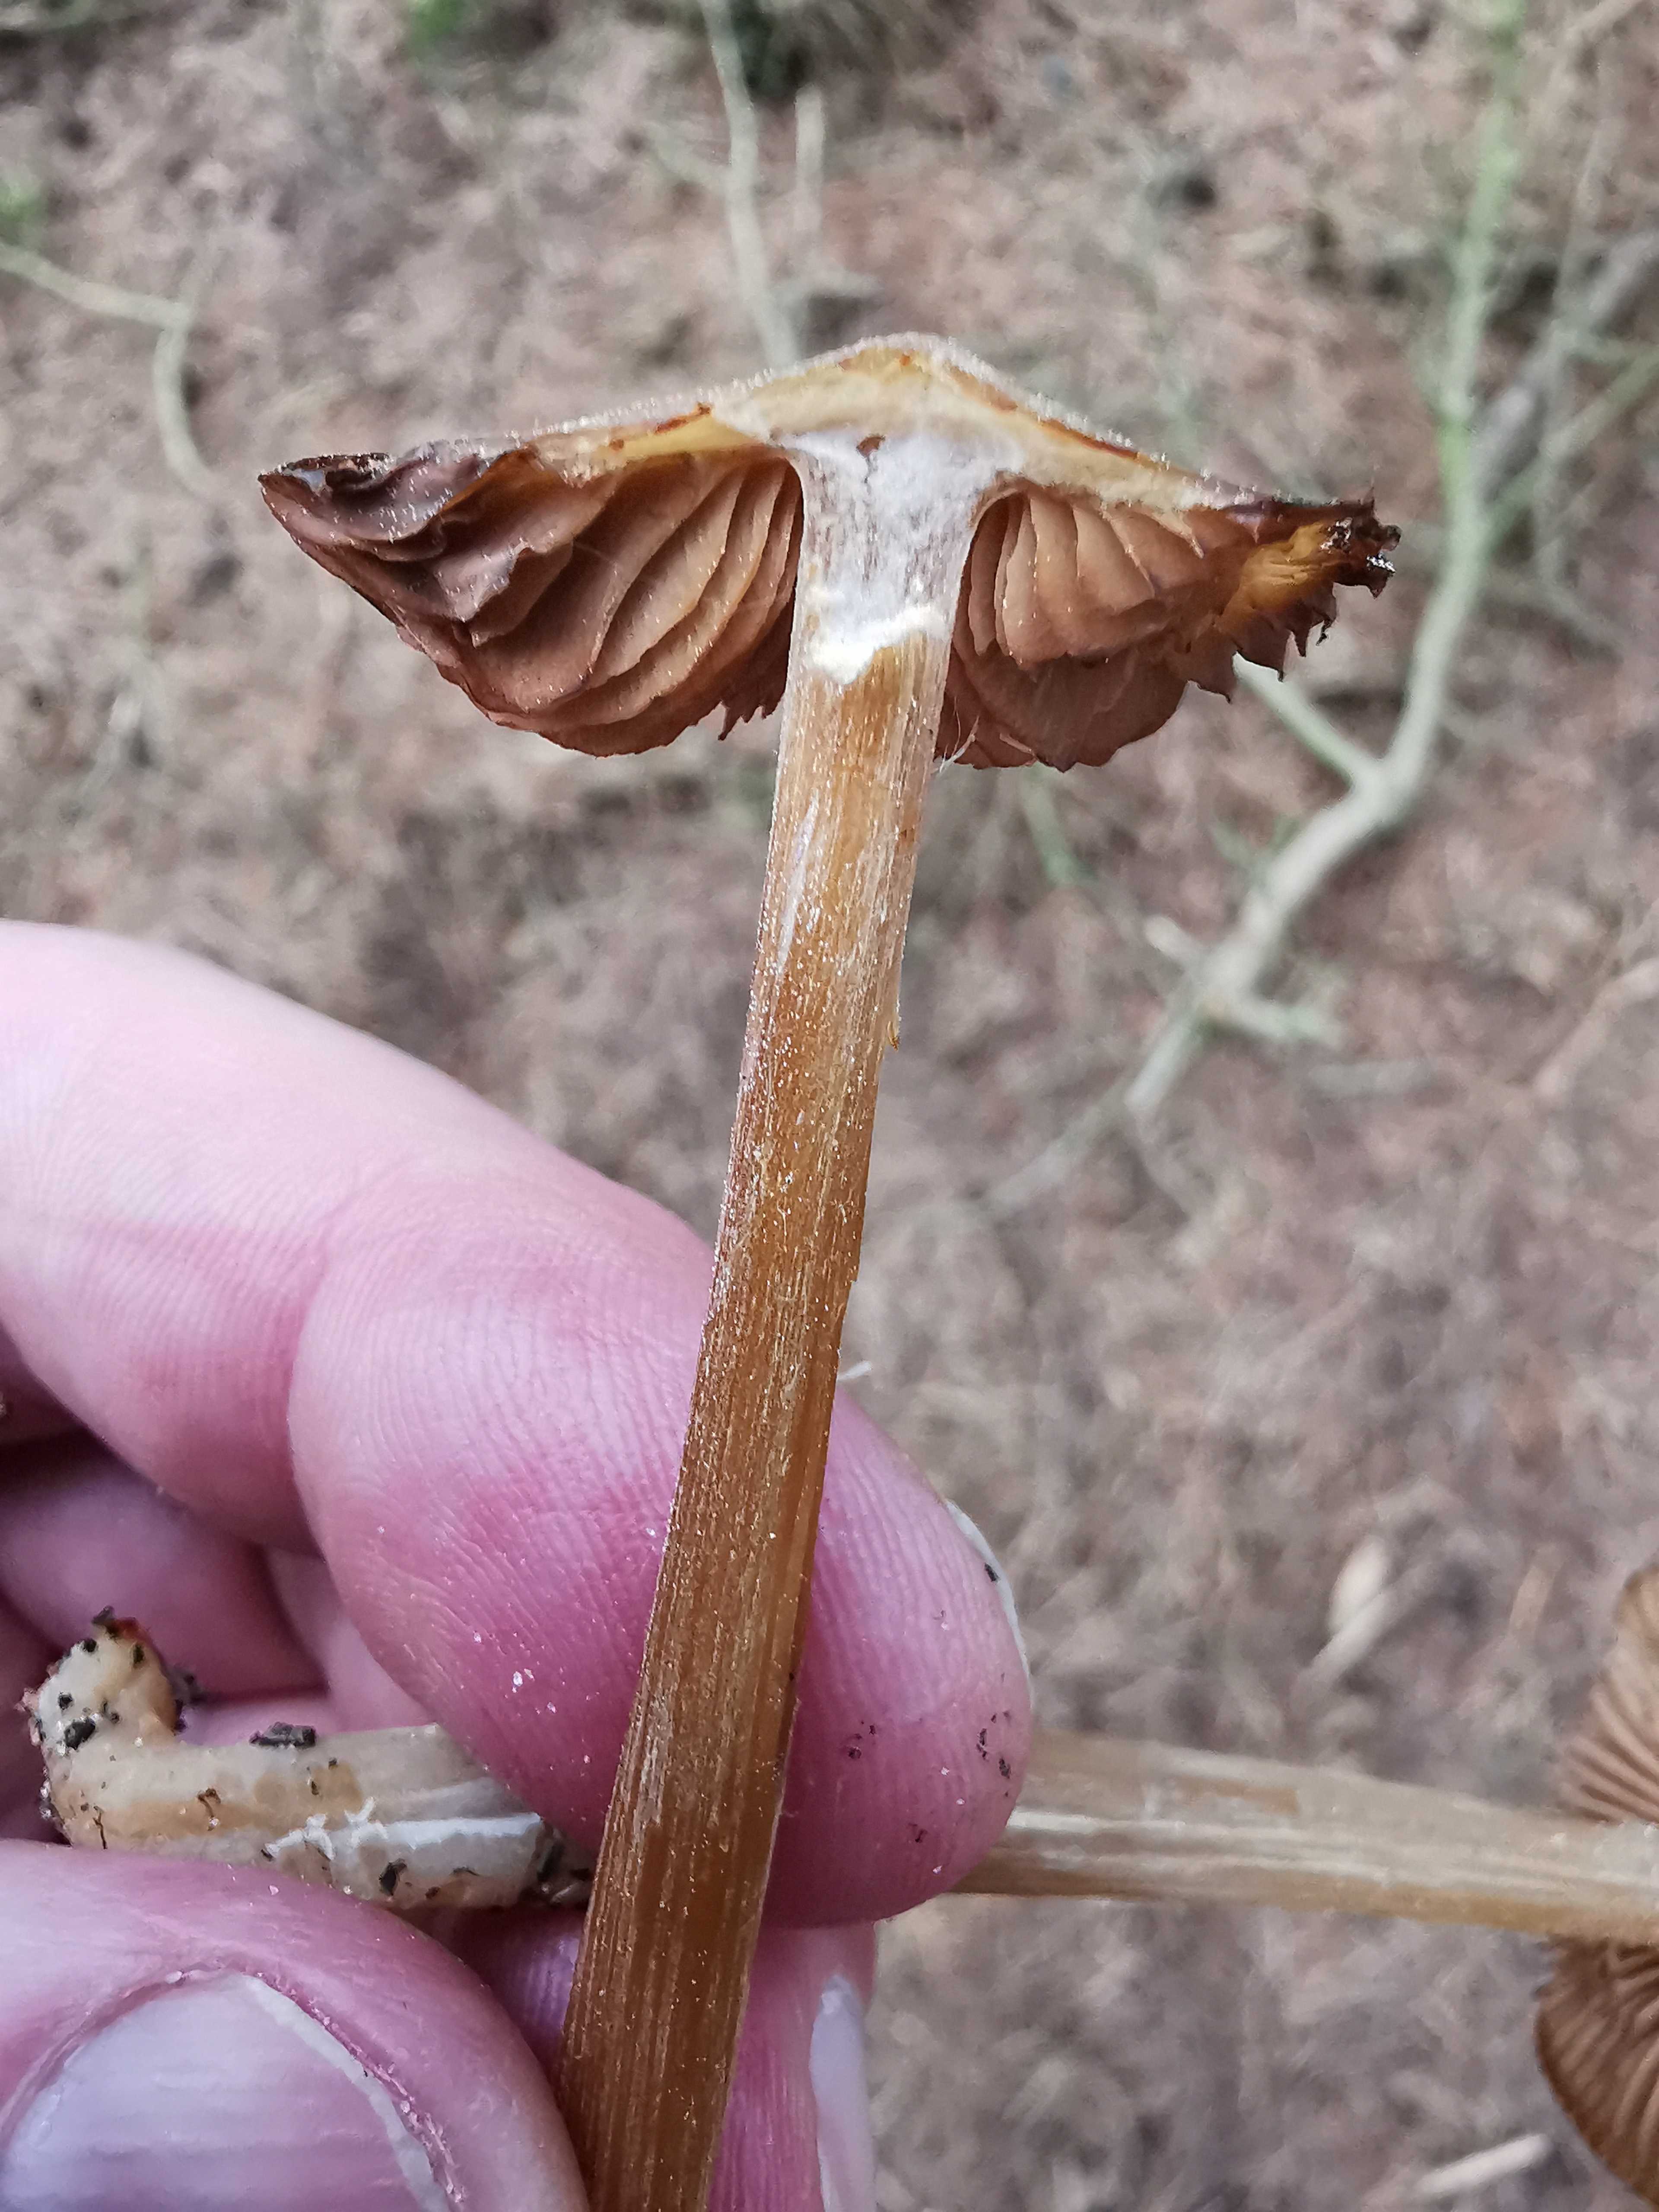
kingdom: Fungi
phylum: Basidiomycota
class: Agaricomycetes
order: Agaricales
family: Entolomataceae
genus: Entoloma
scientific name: Entoloma
